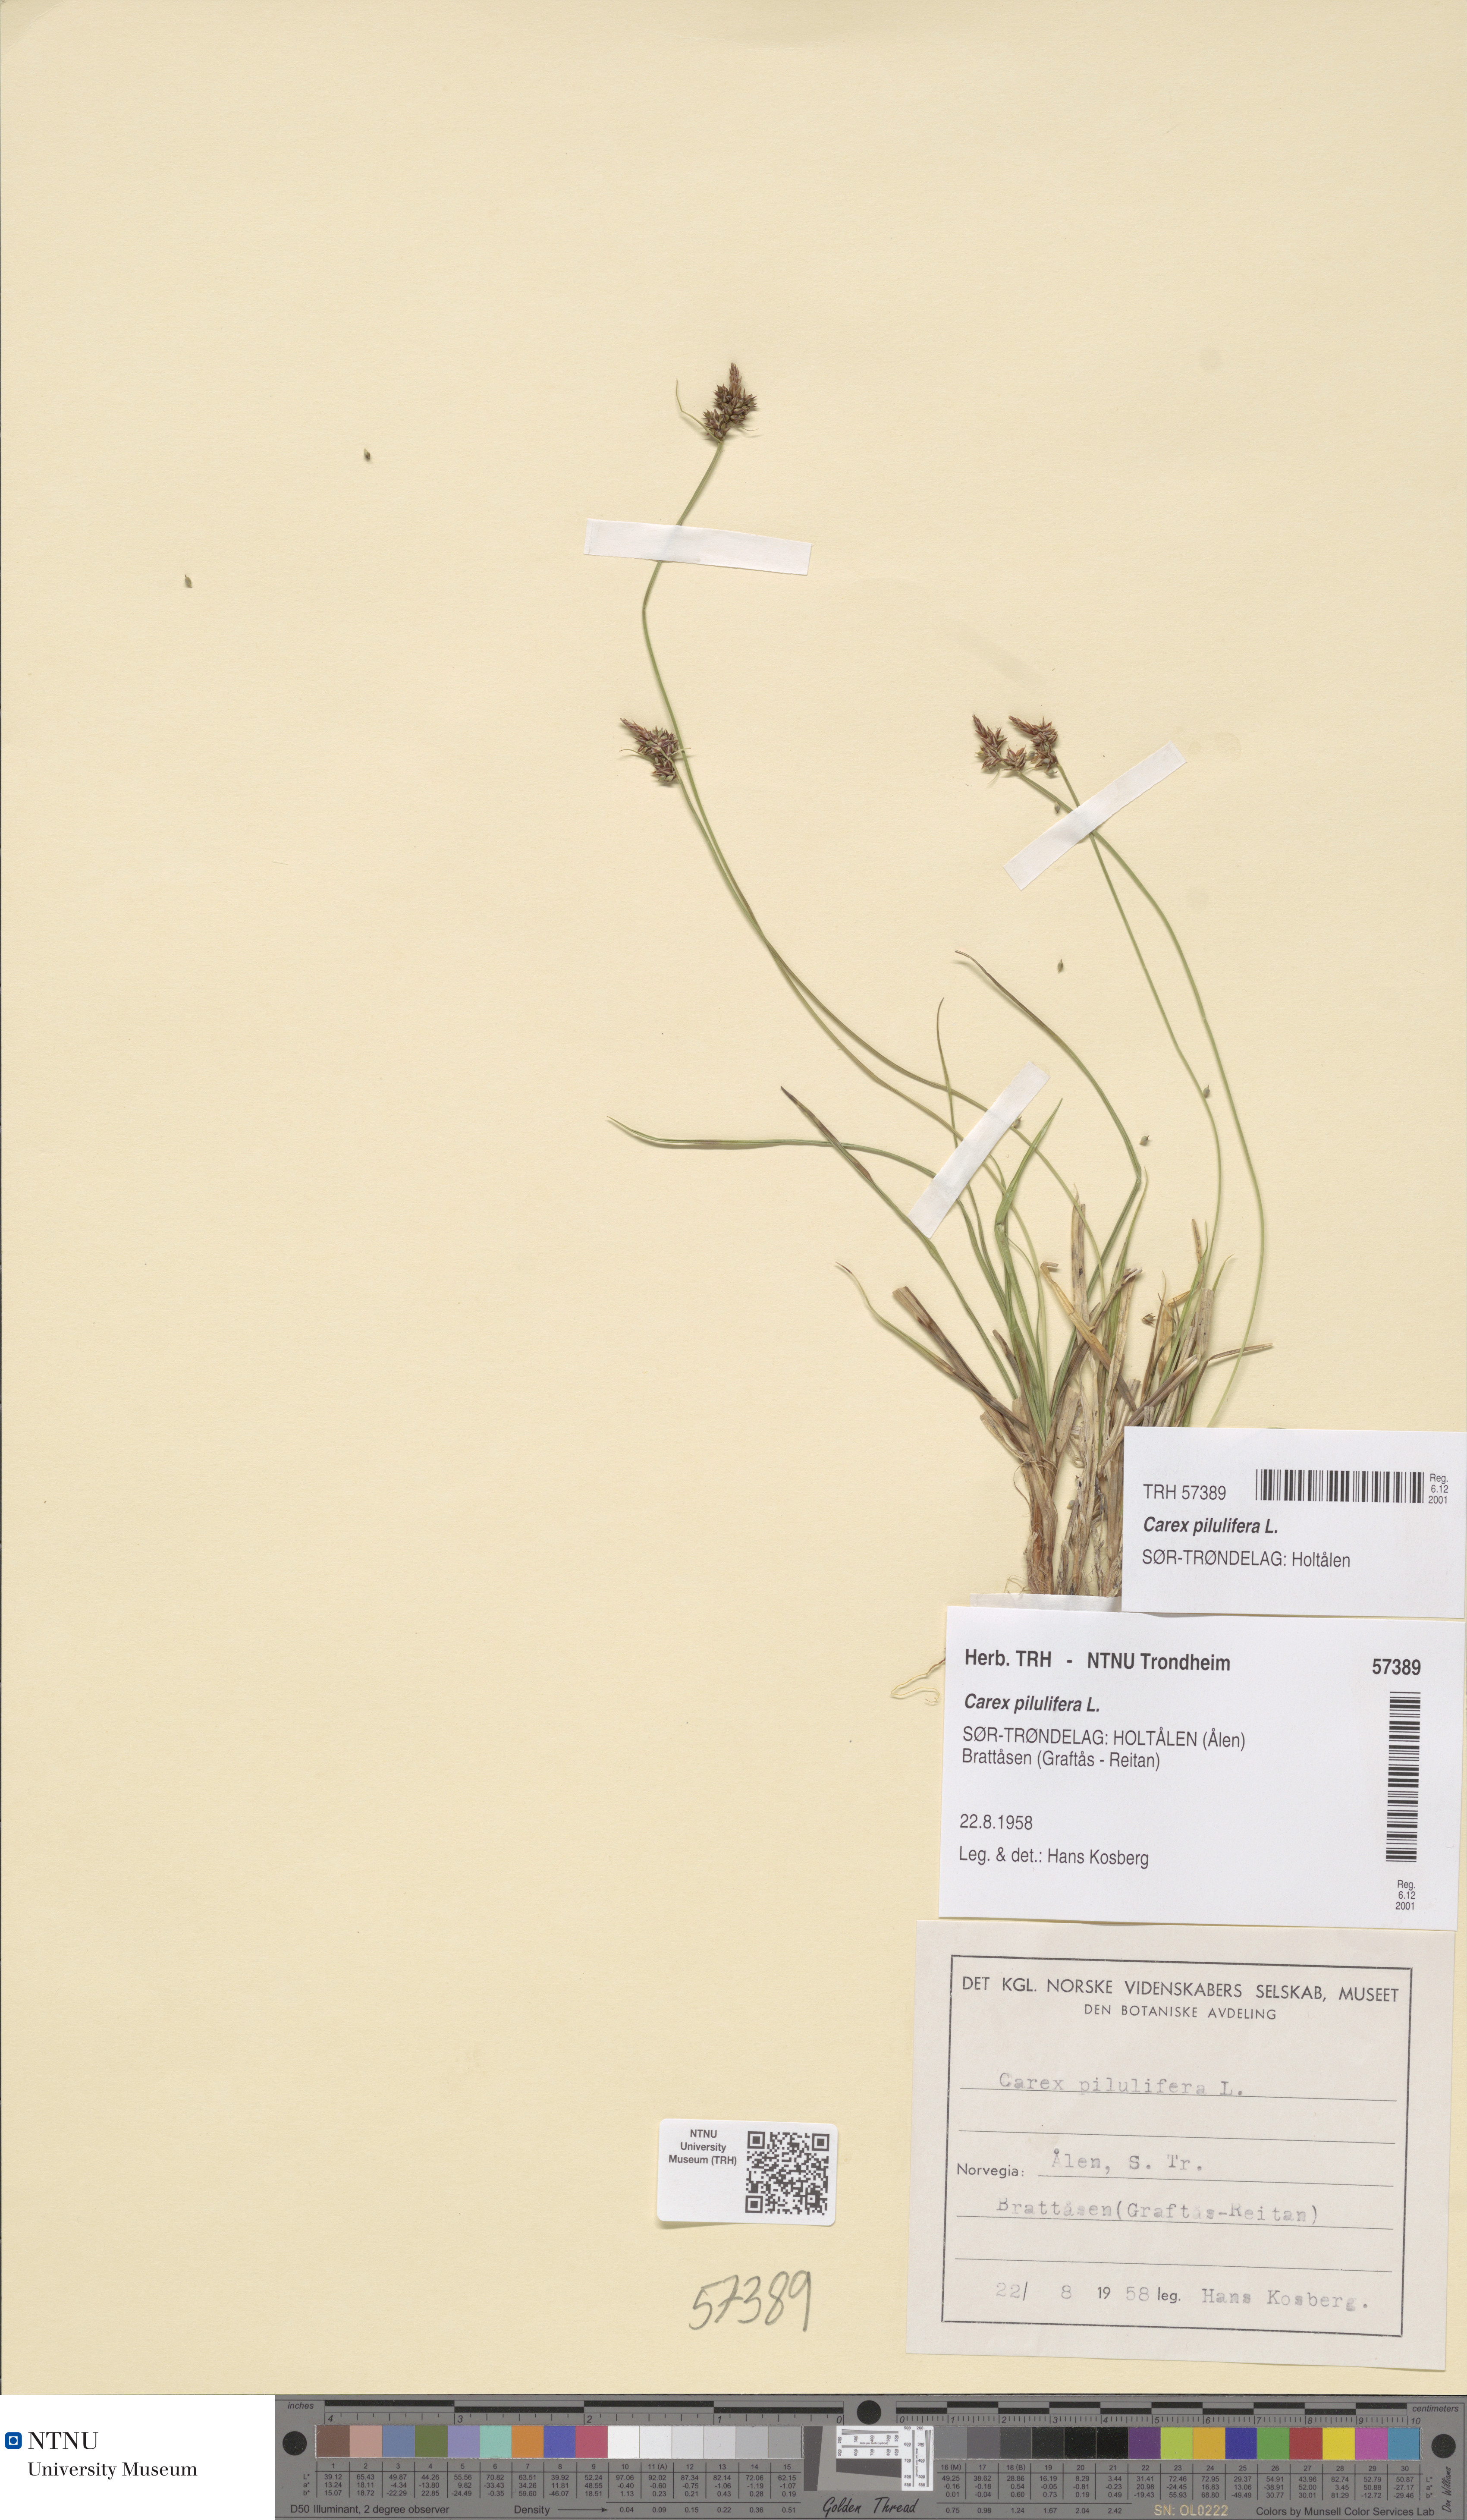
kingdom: Plantae
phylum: Tracheophyta
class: Liliopsida
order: Poales
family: Cyperaceae
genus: Carex
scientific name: Carex pilulifera
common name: Pill sedge
